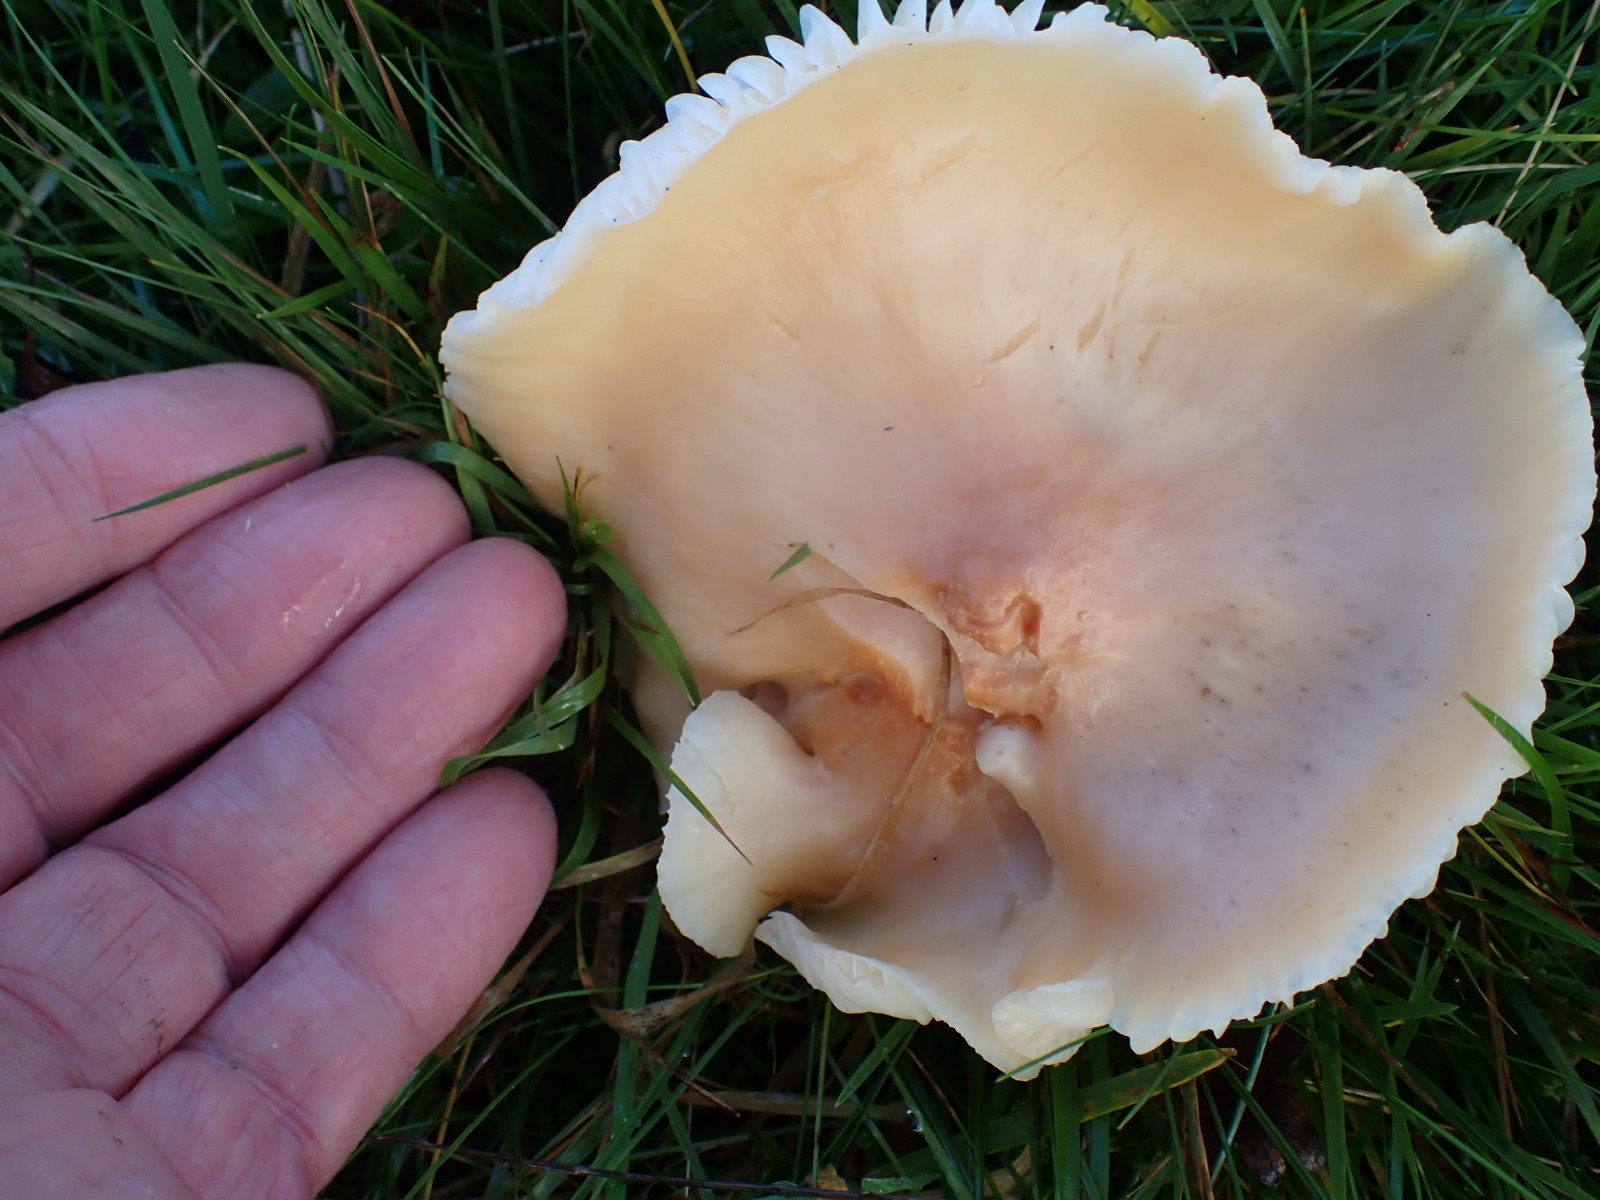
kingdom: Fungi
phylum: Basidiomycota
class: Agaricomycetes
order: Agaricales
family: Hygrophoraceae
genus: Cuphophyllus
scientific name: Cuphophyllus pratensis
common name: eng-vokshat
